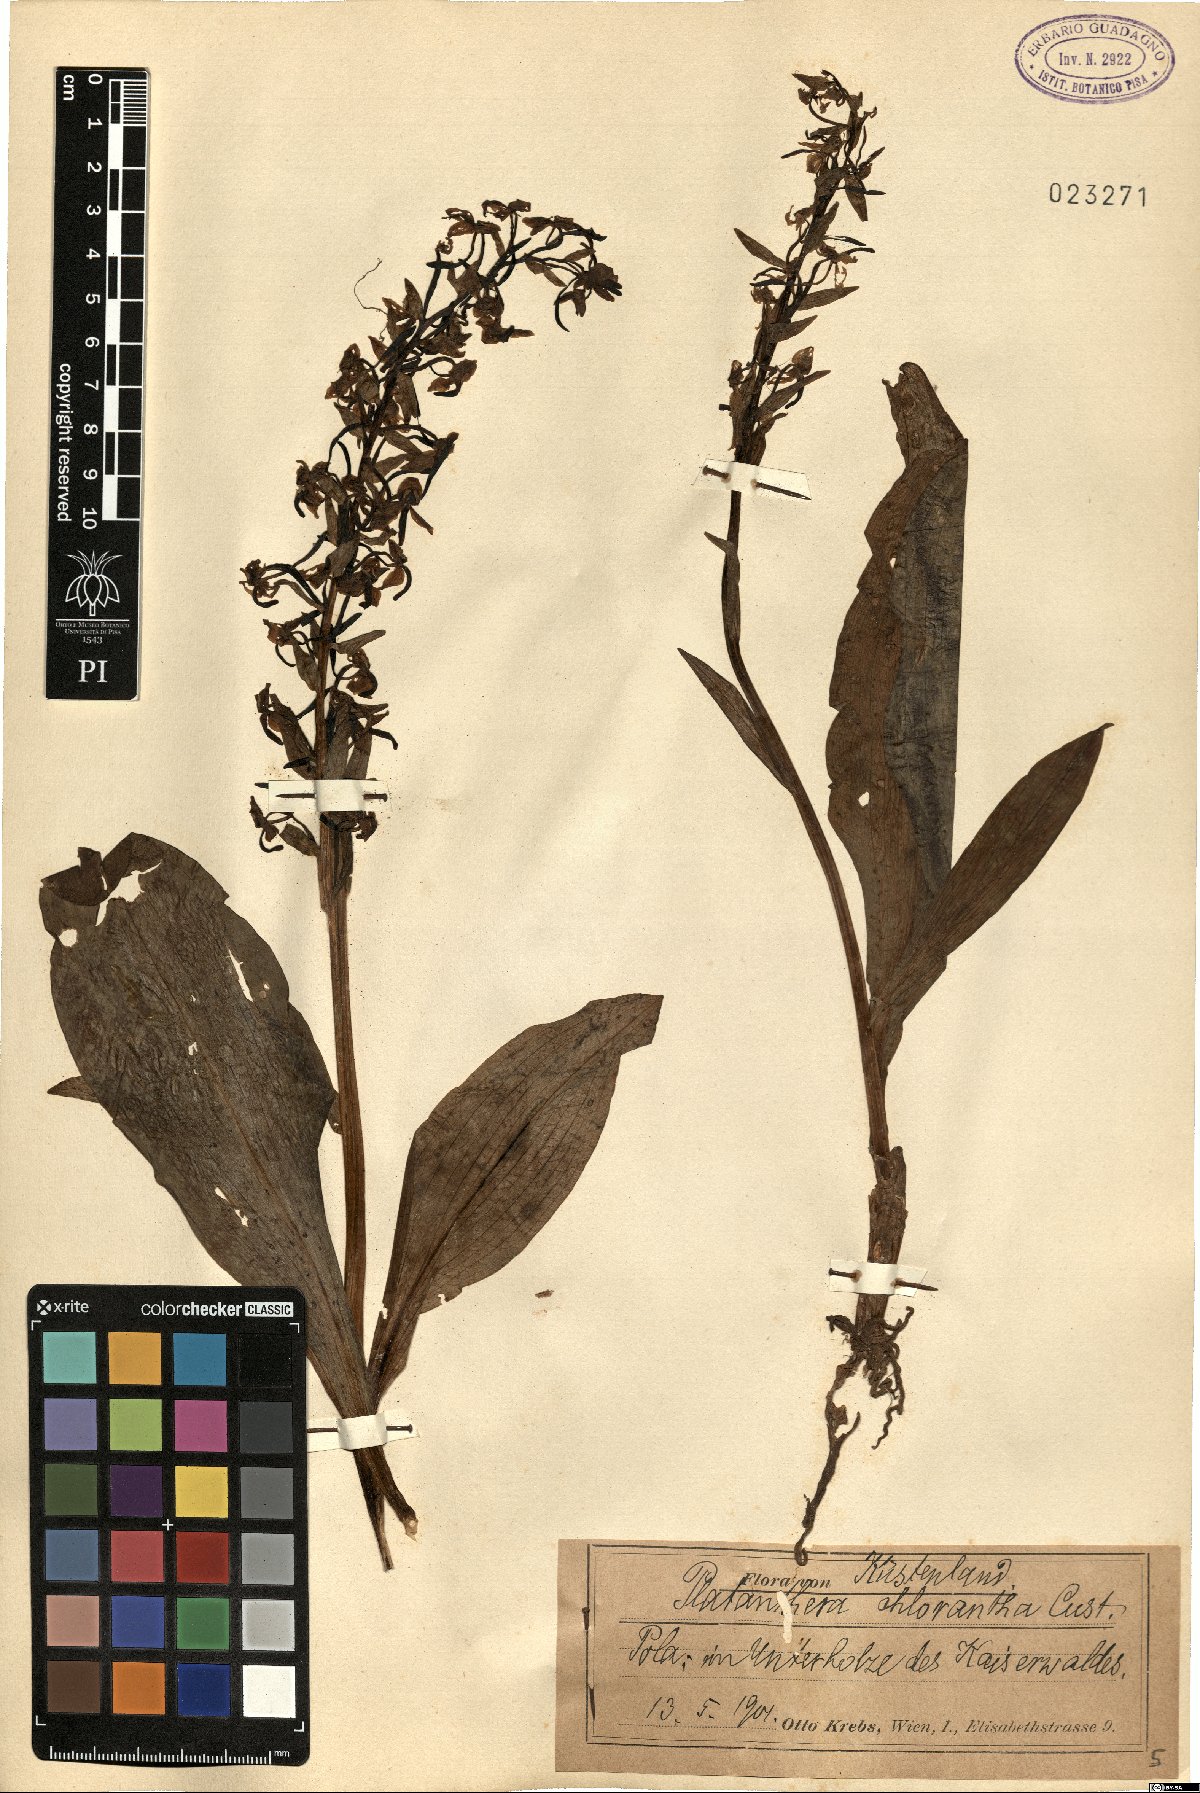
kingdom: Plantae
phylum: Tracheophyta
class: Liliopsida
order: Asparagales
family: Orchidaceae
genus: Platanthera
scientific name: Platanthera chlorantha
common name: Greater butterfly-orchid
